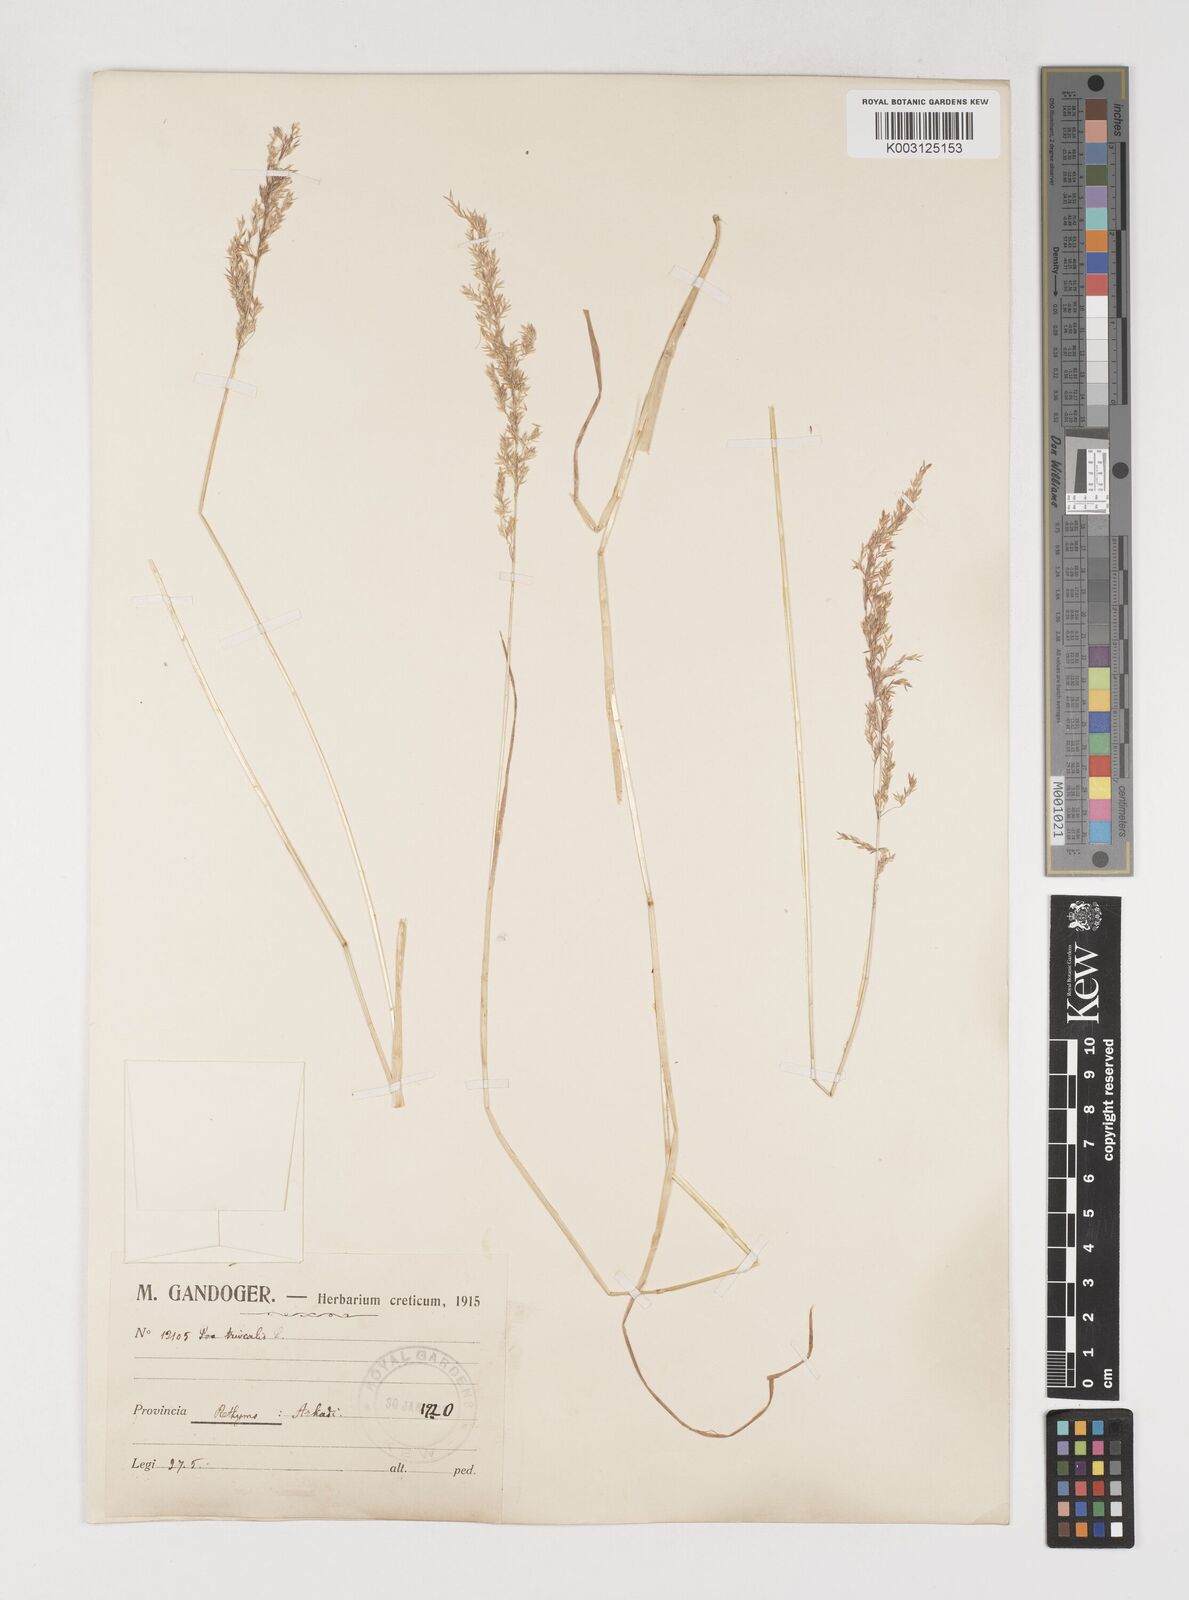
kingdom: Plantae
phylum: Tracheophyta
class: Liliopsida
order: Poales
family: Poaceae
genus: Poa
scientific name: Poa trivialis
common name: Rough bluegrass
